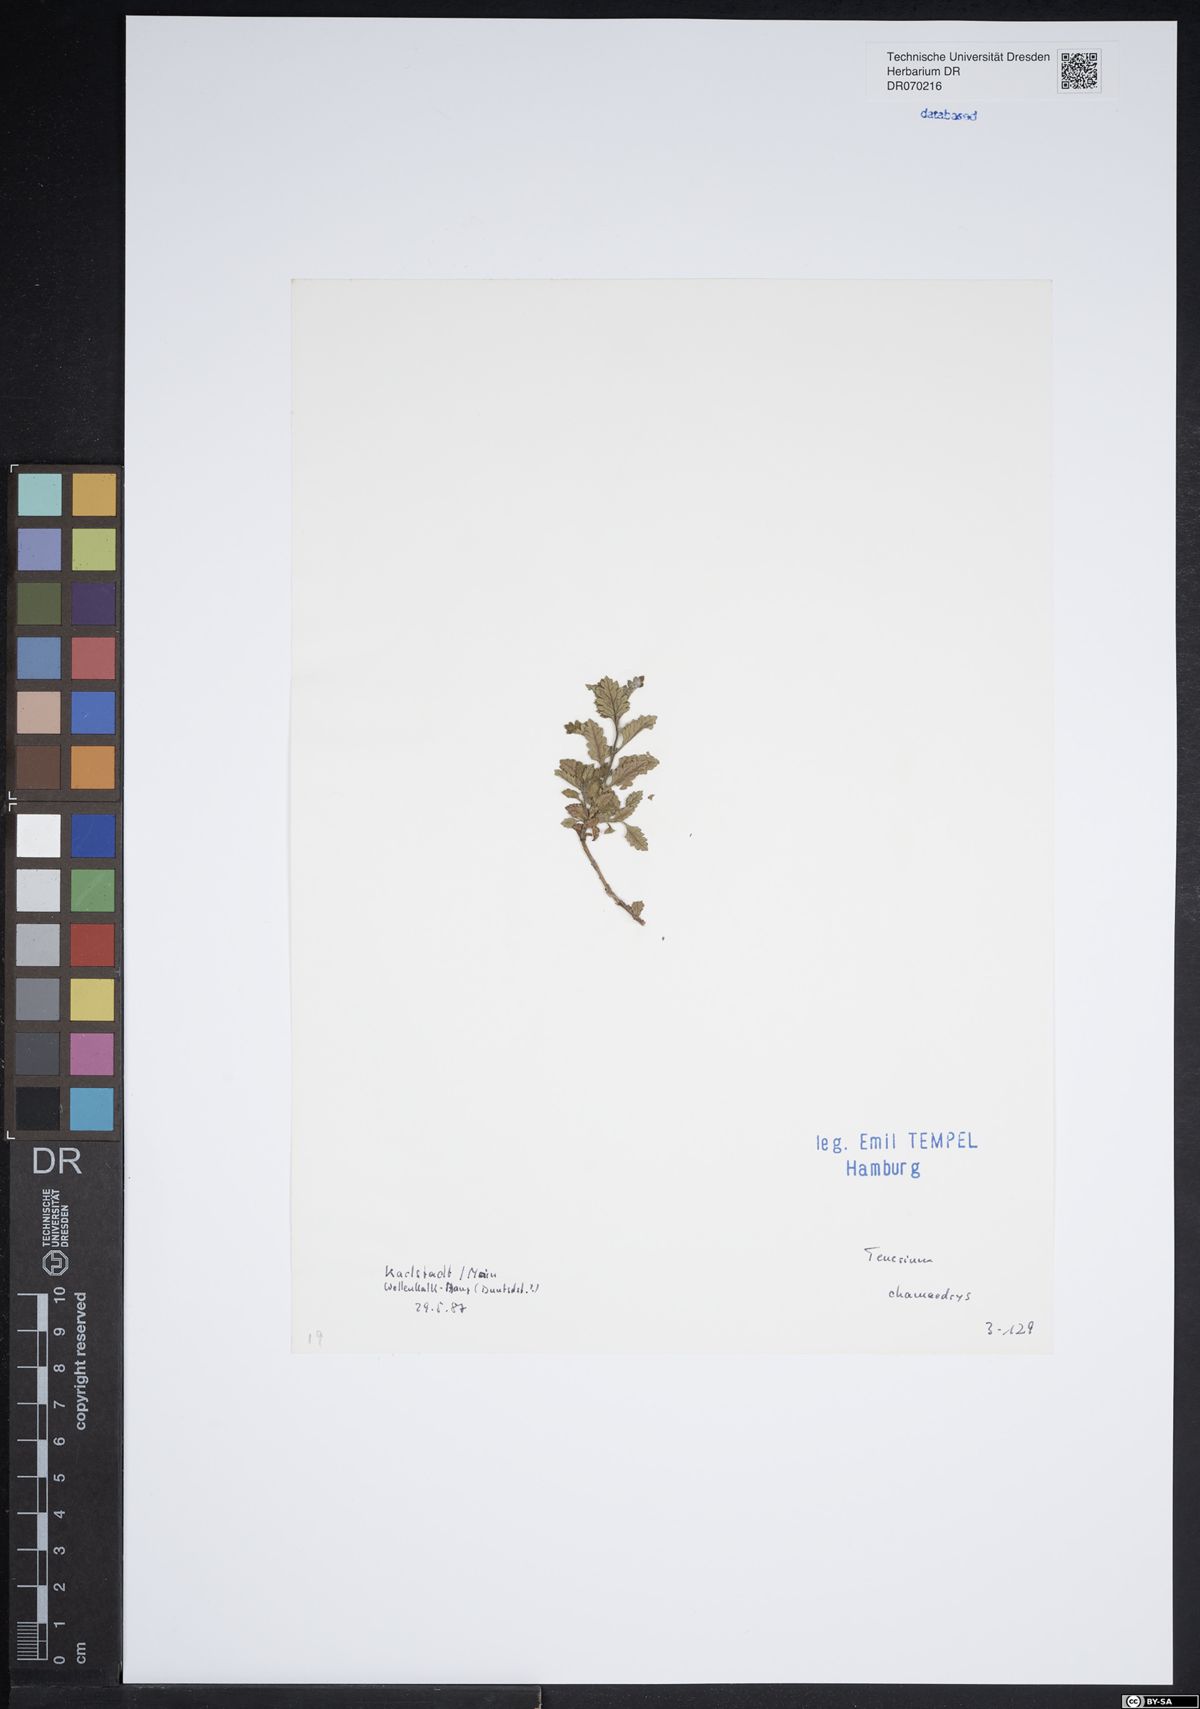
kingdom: Plantae
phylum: Tracheophyta
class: Magnoliopsida
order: Lamiales
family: Lamiaceae
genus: Teucrium
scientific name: Teucrium chamaedrys
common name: Wall germander
